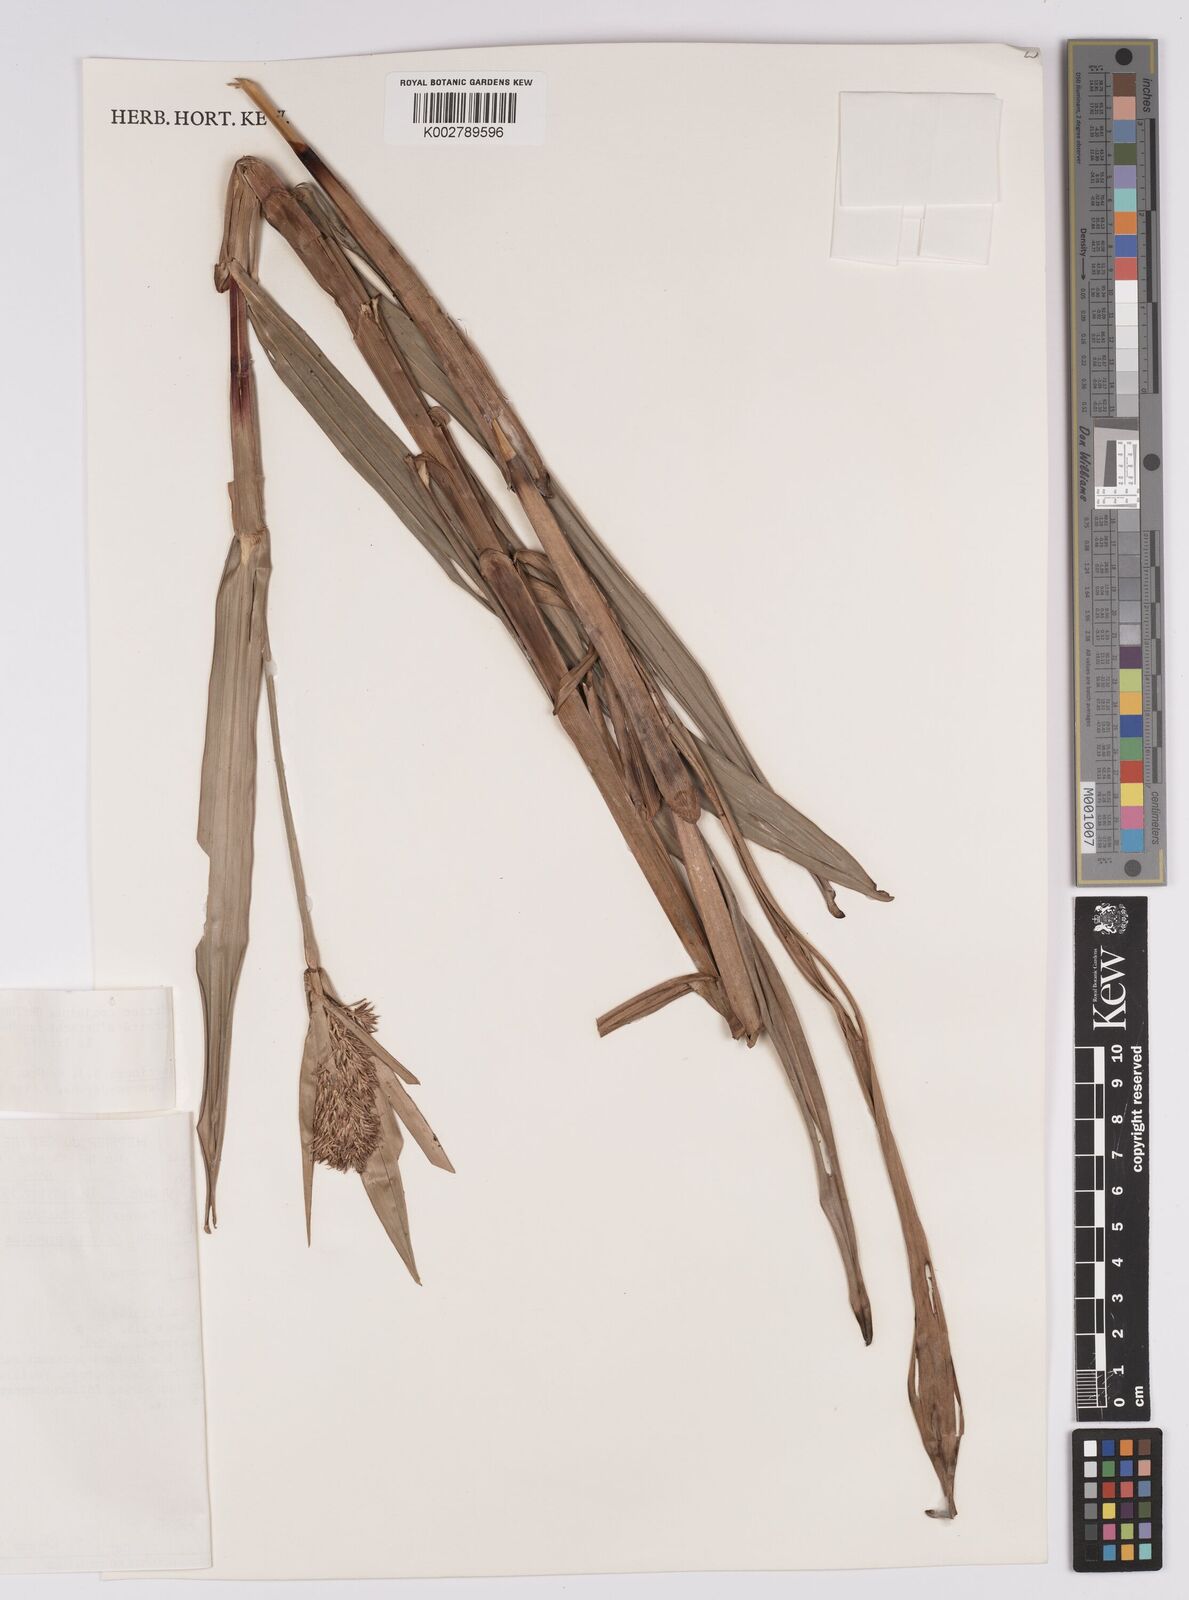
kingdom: Plantae
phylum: Tracheophyta
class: Liliopsida
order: Poales
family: Cyperaceae
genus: Scleria
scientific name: Scleria cyperina
